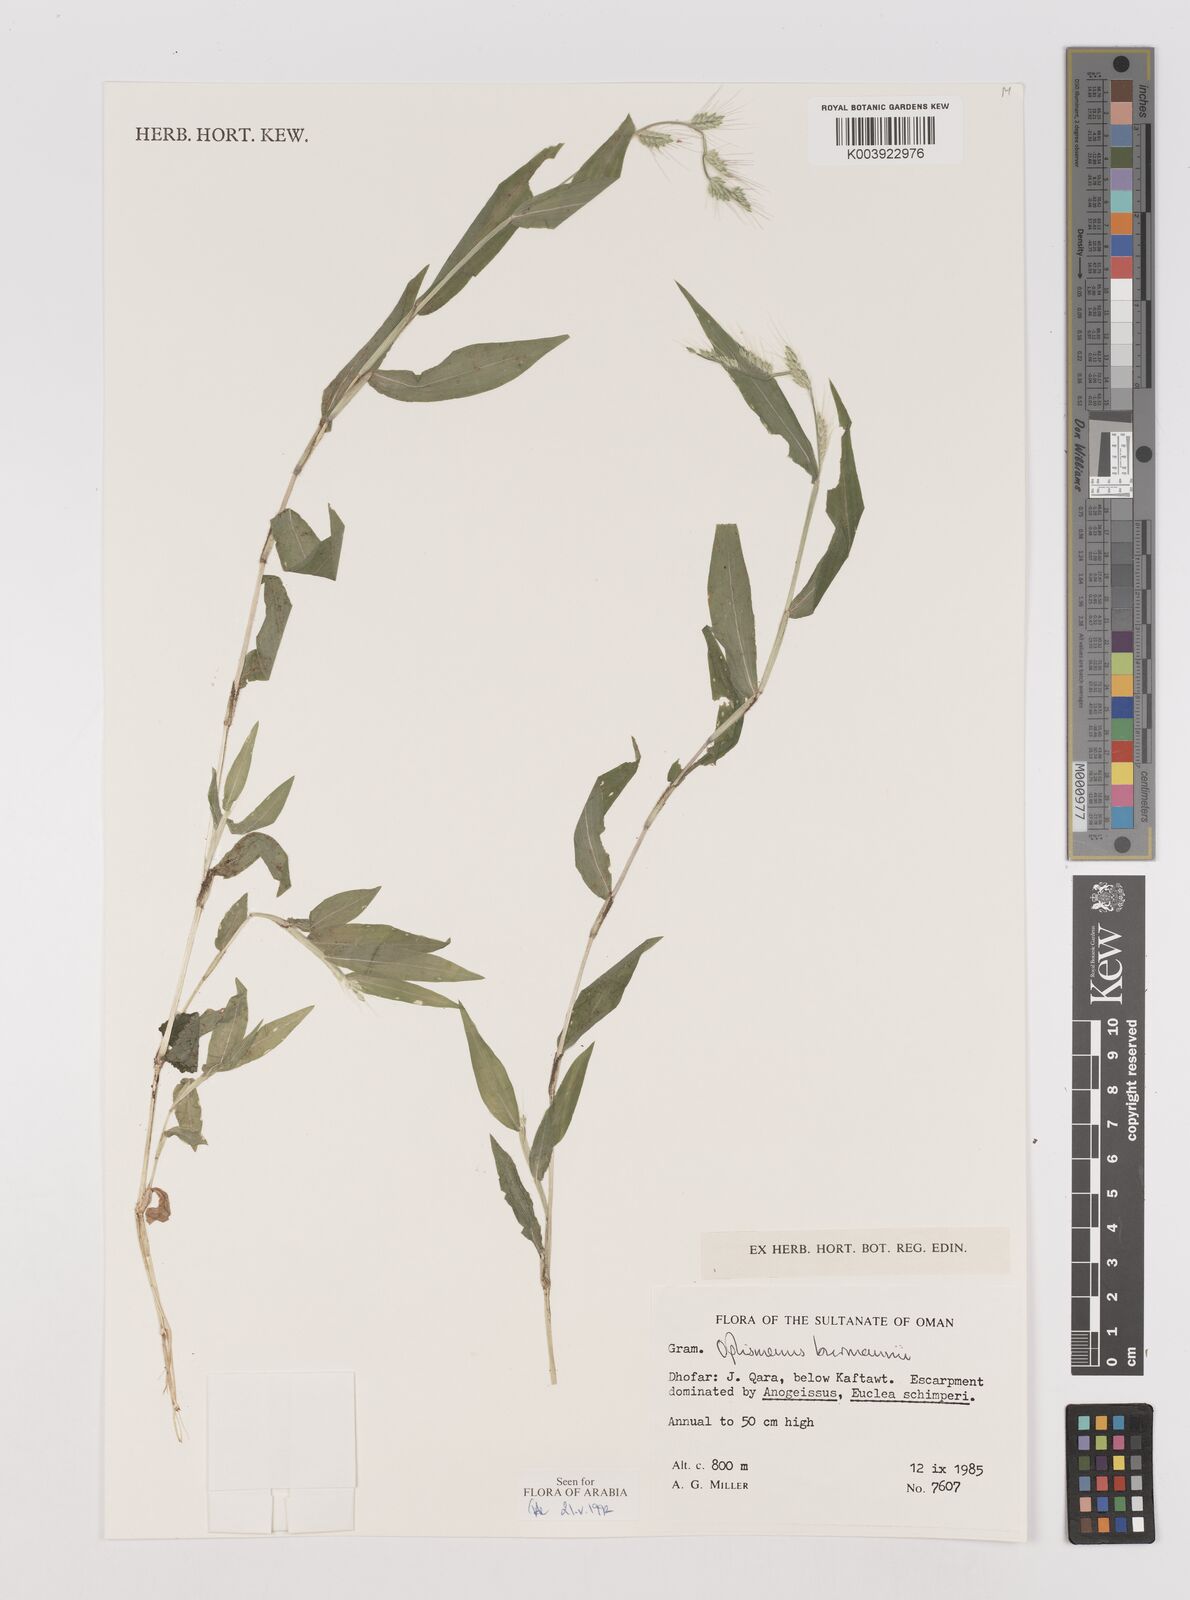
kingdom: Plantae
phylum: Tracheophyta
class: Liliopsida
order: Poales
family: Poaceae
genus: Oplismenus
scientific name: Oplismenus burmanni
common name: Burmann's basketgrass
